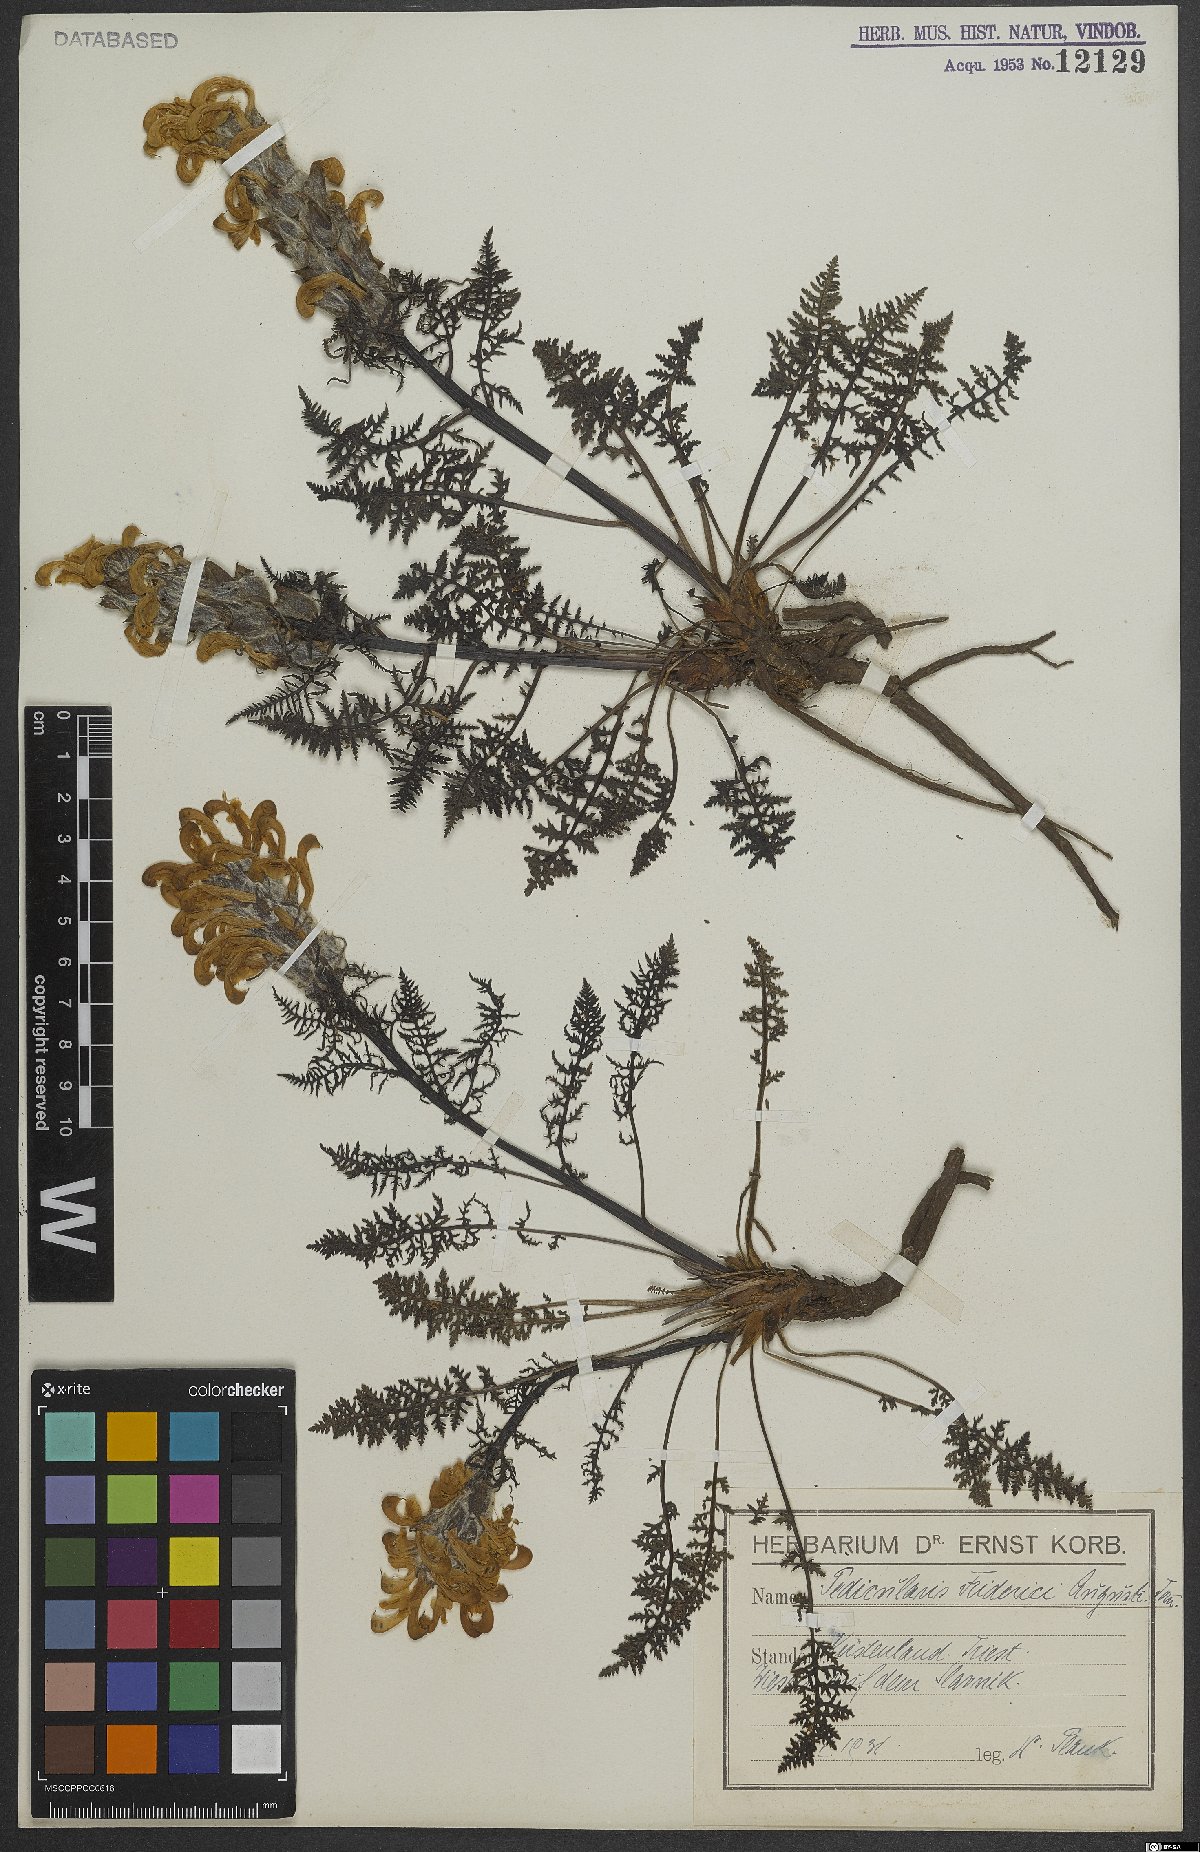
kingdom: Plantae
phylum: Tracheophyta
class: Magnoliopsida
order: Lamiales
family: Orobanchaceae
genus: Pedicularis
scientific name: Pedicularis friderici-augusti
